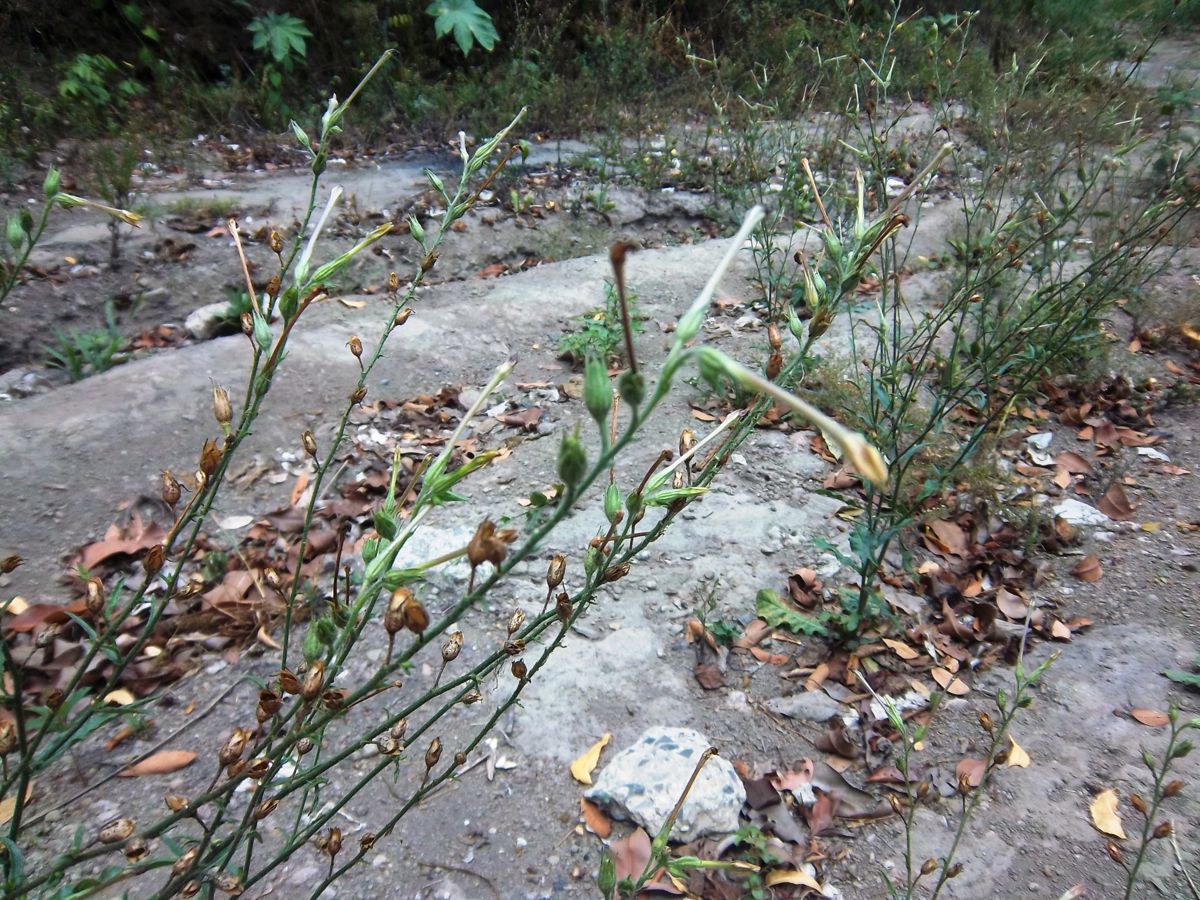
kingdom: Plantae
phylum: Tracheophyta
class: Magnoliopsida
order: Solanales
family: Solanaceae
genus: Nicotiana
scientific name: Nicotiana plumbaginifolia
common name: Tex-mex tobacco
